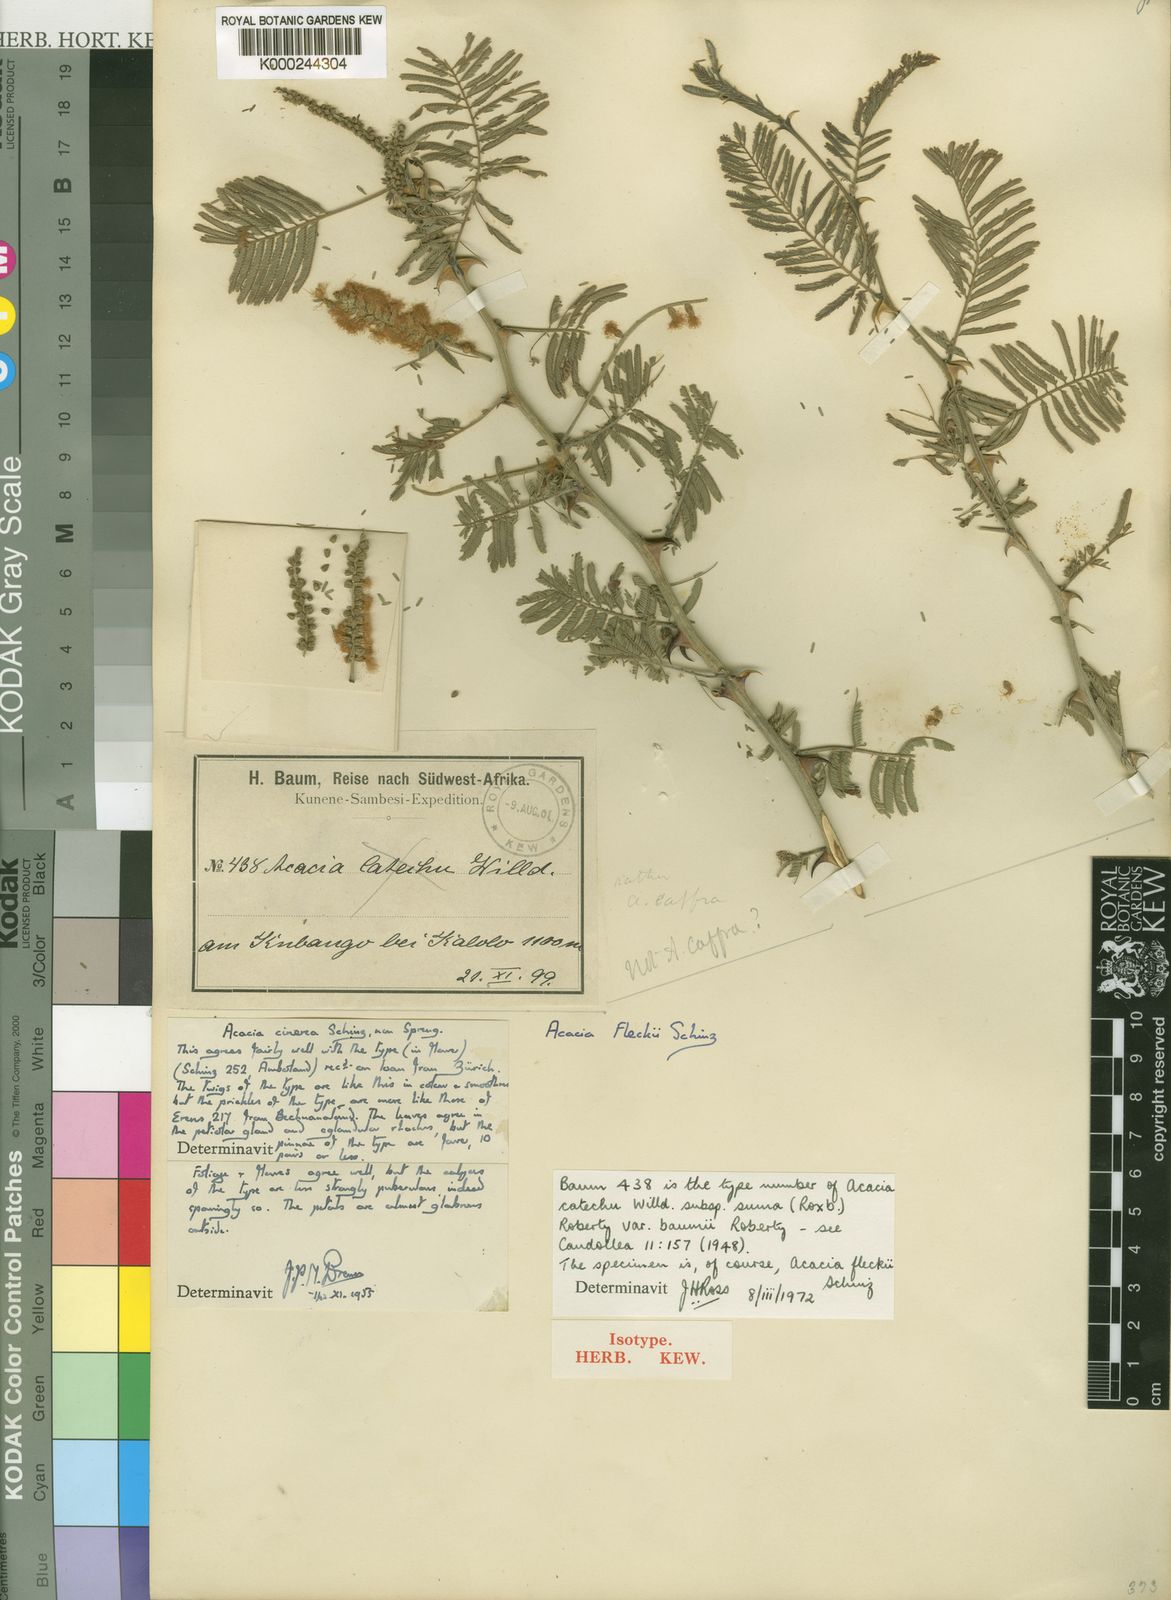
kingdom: Plantae
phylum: Tracheophyta
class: Magnoliopsida
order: Fabales
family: Fabaceae
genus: Senegalia
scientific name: Senegalia fleckii
